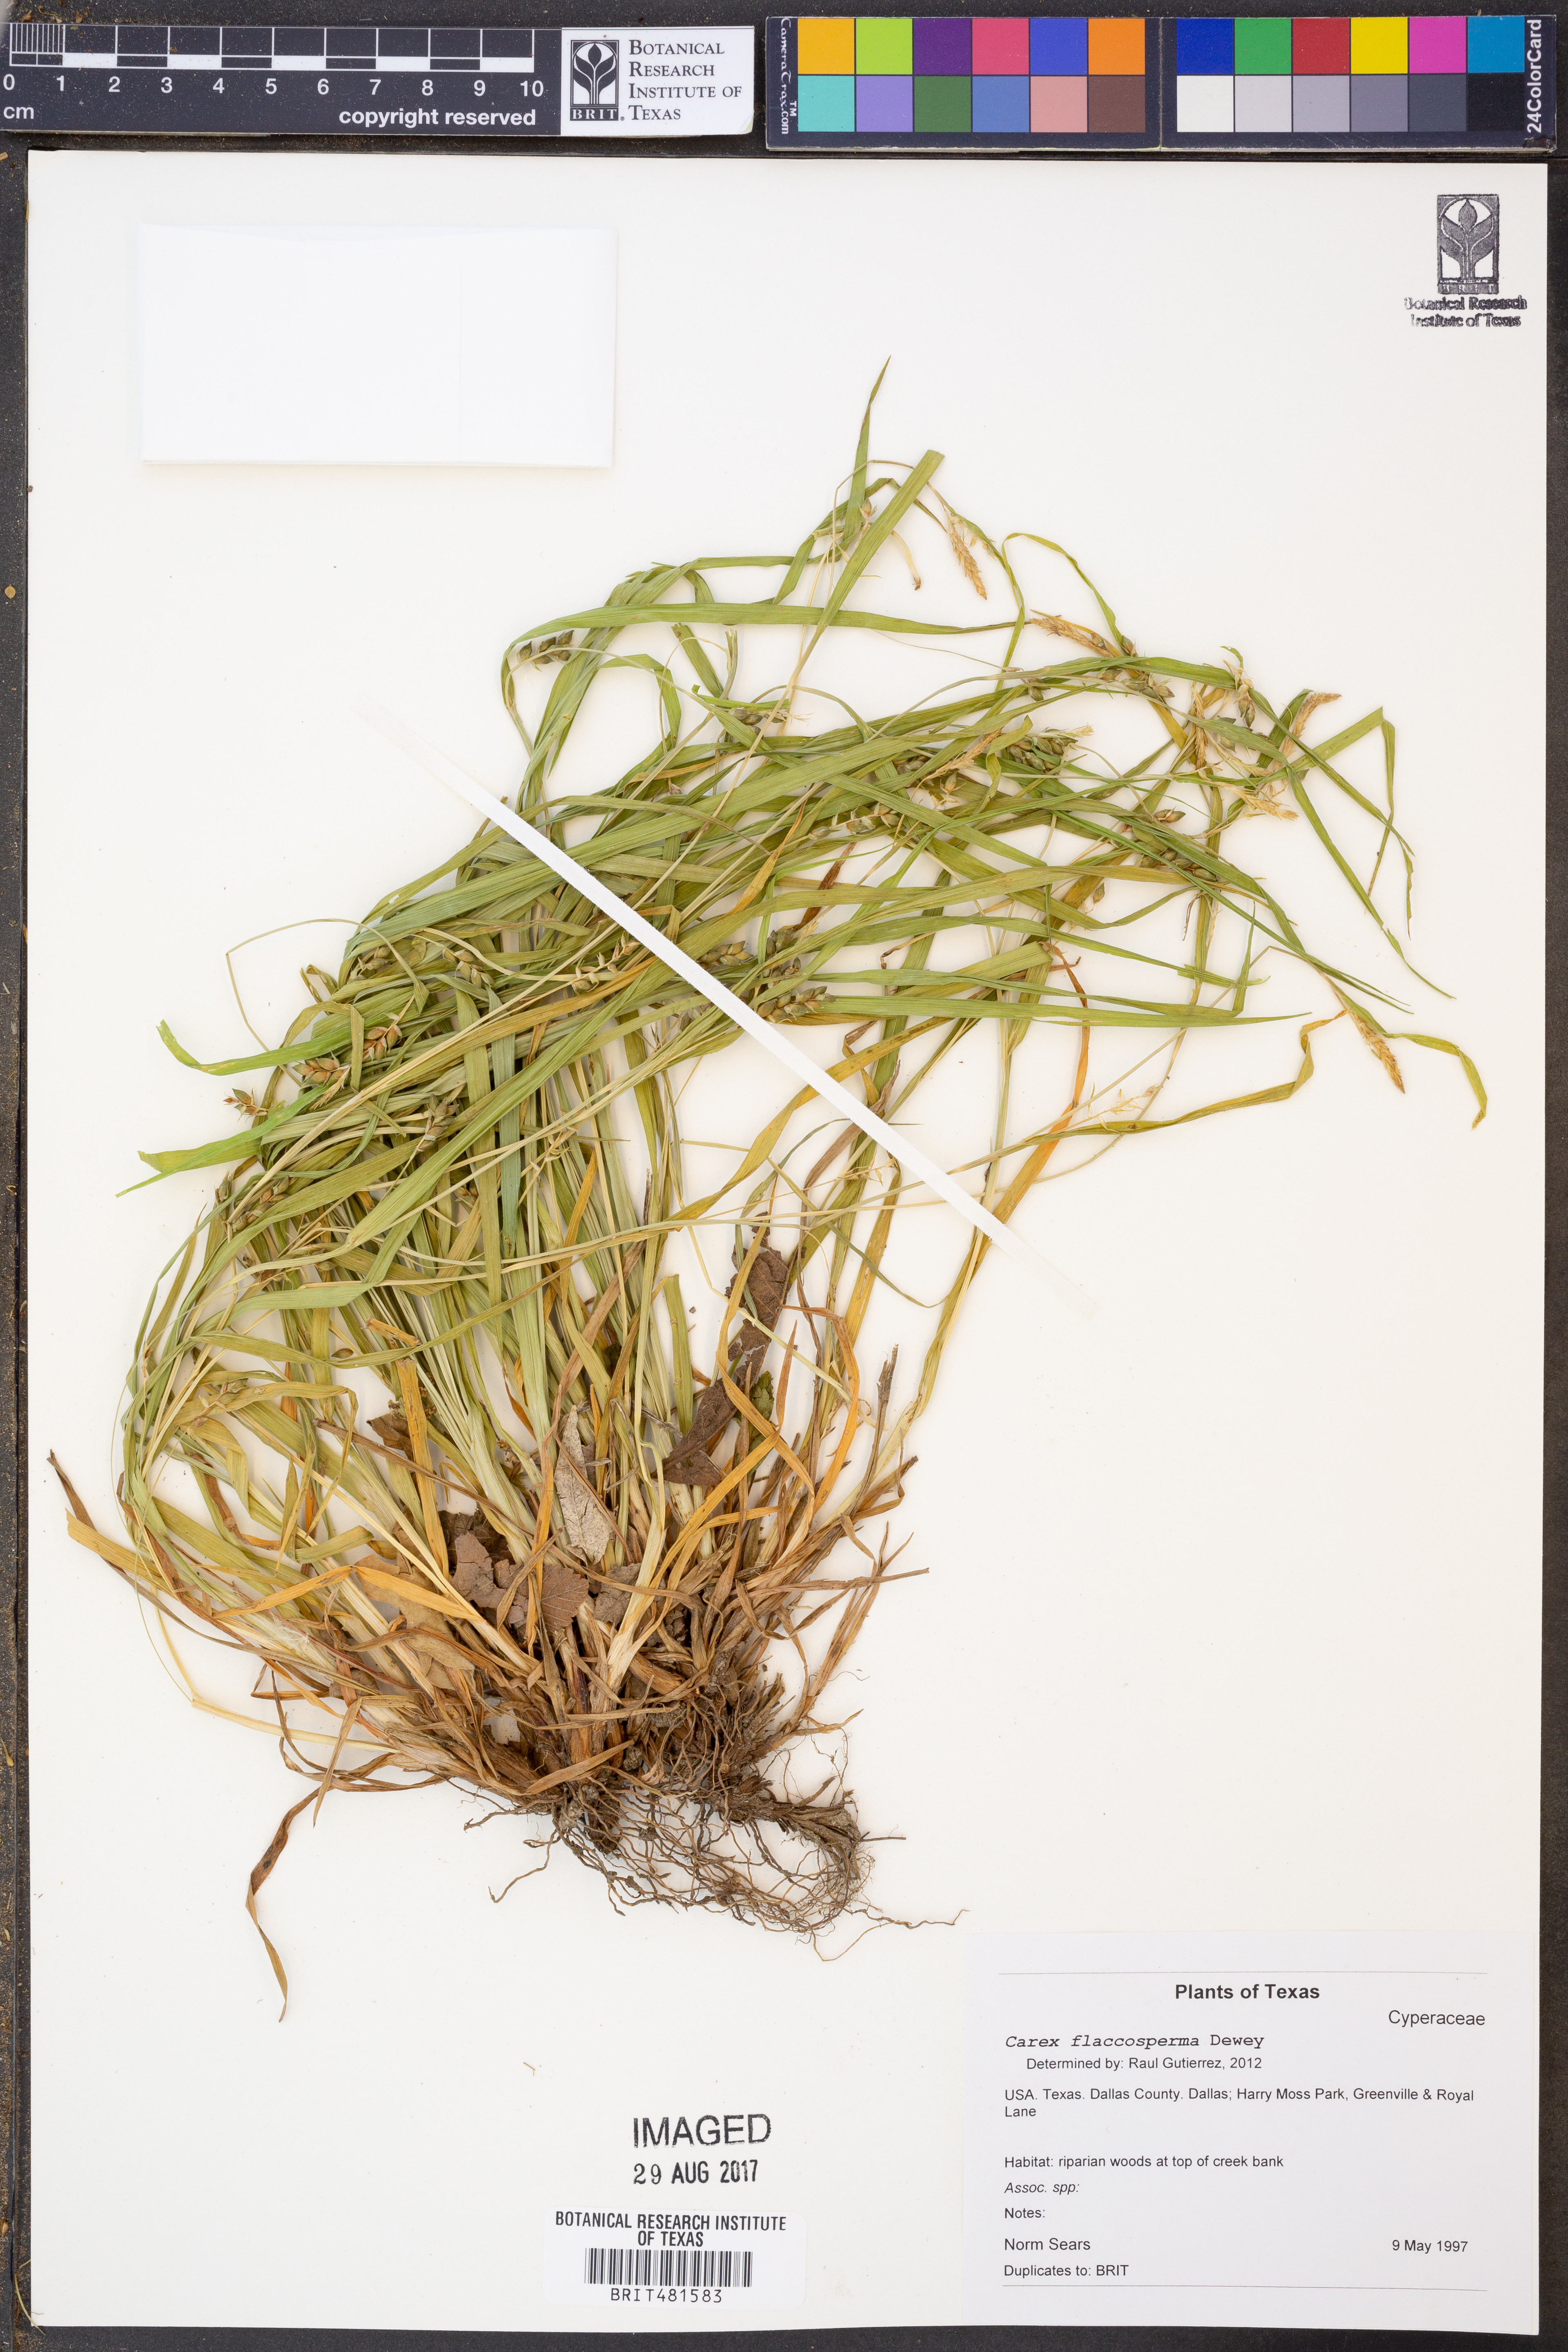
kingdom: Plantae
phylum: Tracheophyta
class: Liliopsida
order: Poales
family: Cyperaceae
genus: Carex
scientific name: Carex flaccosperma
